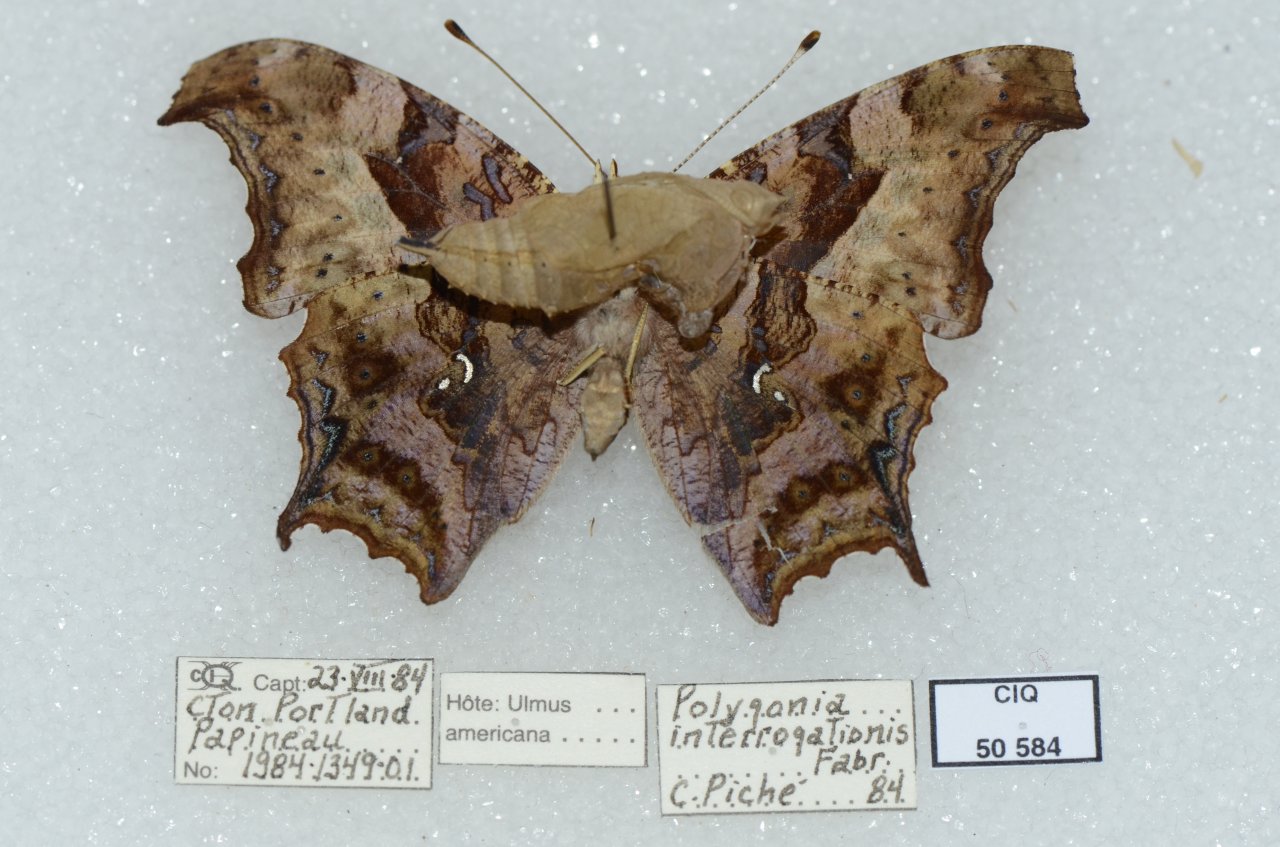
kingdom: Animalia
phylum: Arthropoda
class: Insecta
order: Lepidoptera
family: Nymphalidae
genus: Polygonia
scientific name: Polygonia interrogationis
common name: Question Mark
